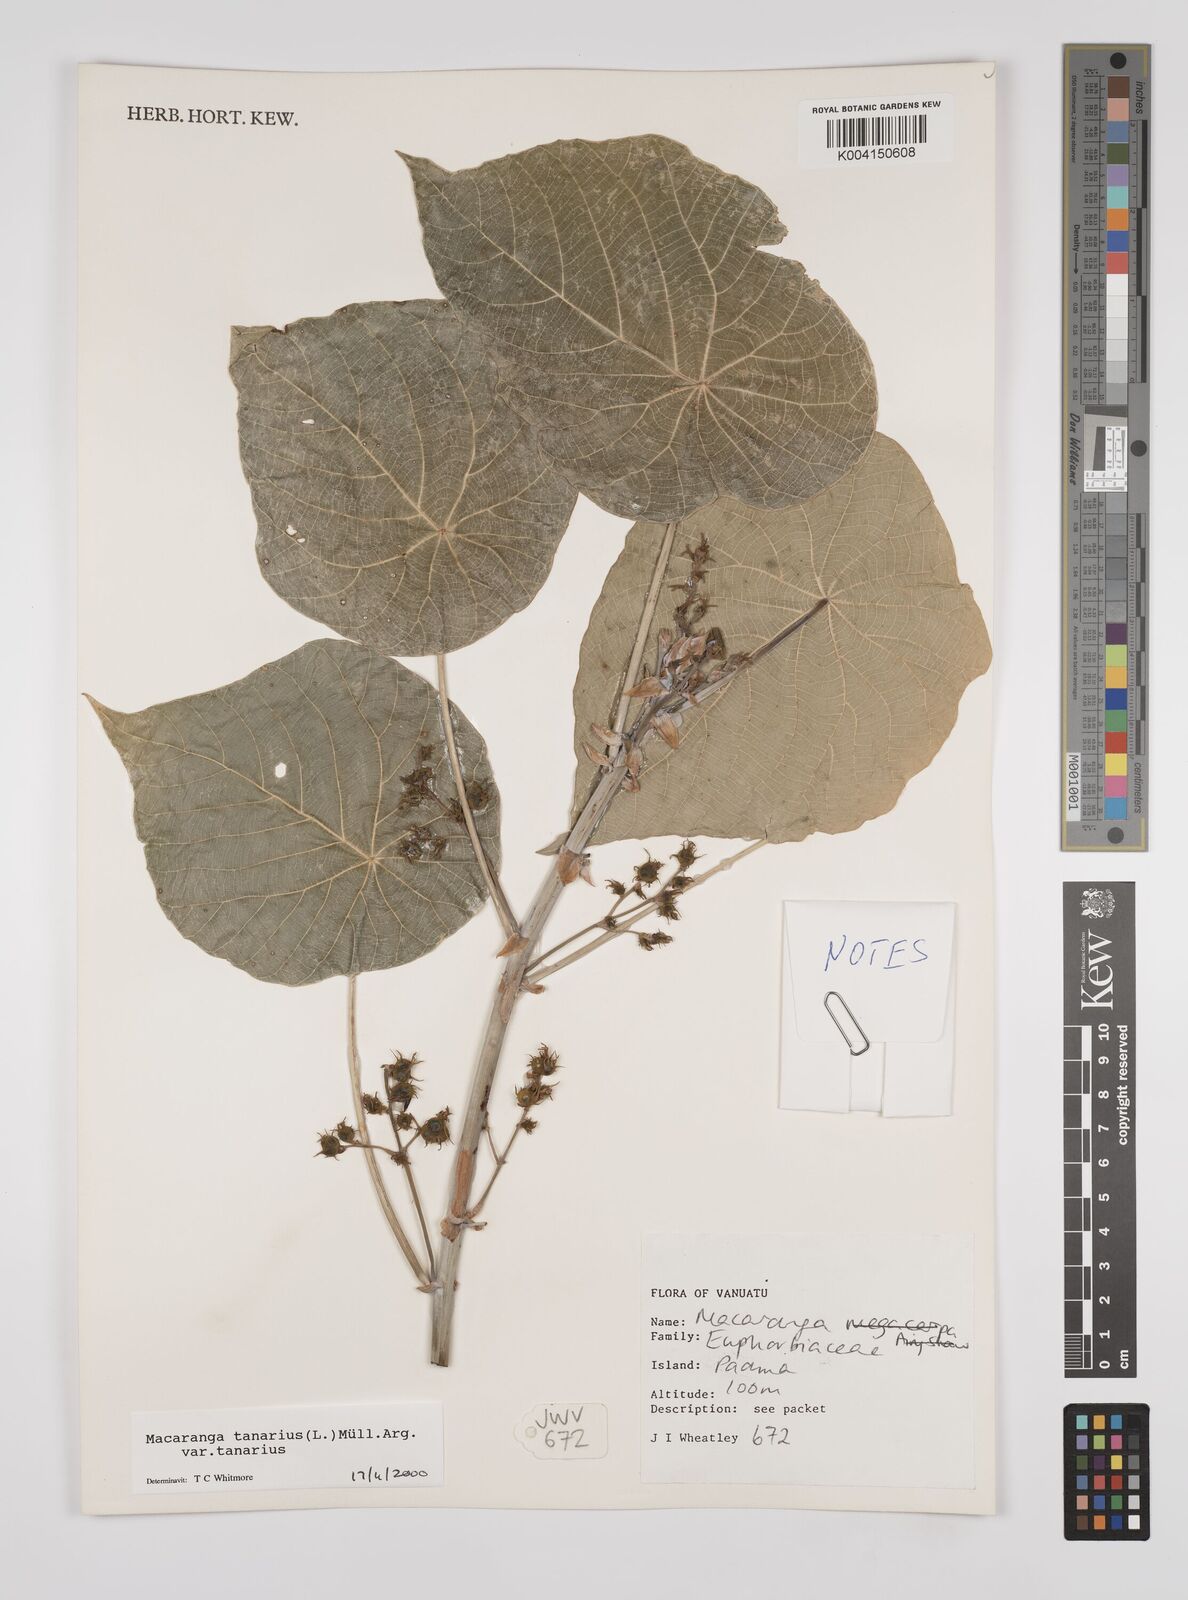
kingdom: Plantae
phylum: Tracheophyta
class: Magnoliopsida
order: Malpighiales
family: Euphorbiaceae
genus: Macaranga
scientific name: Macaranga tanarius
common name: Parasol leaf tree
